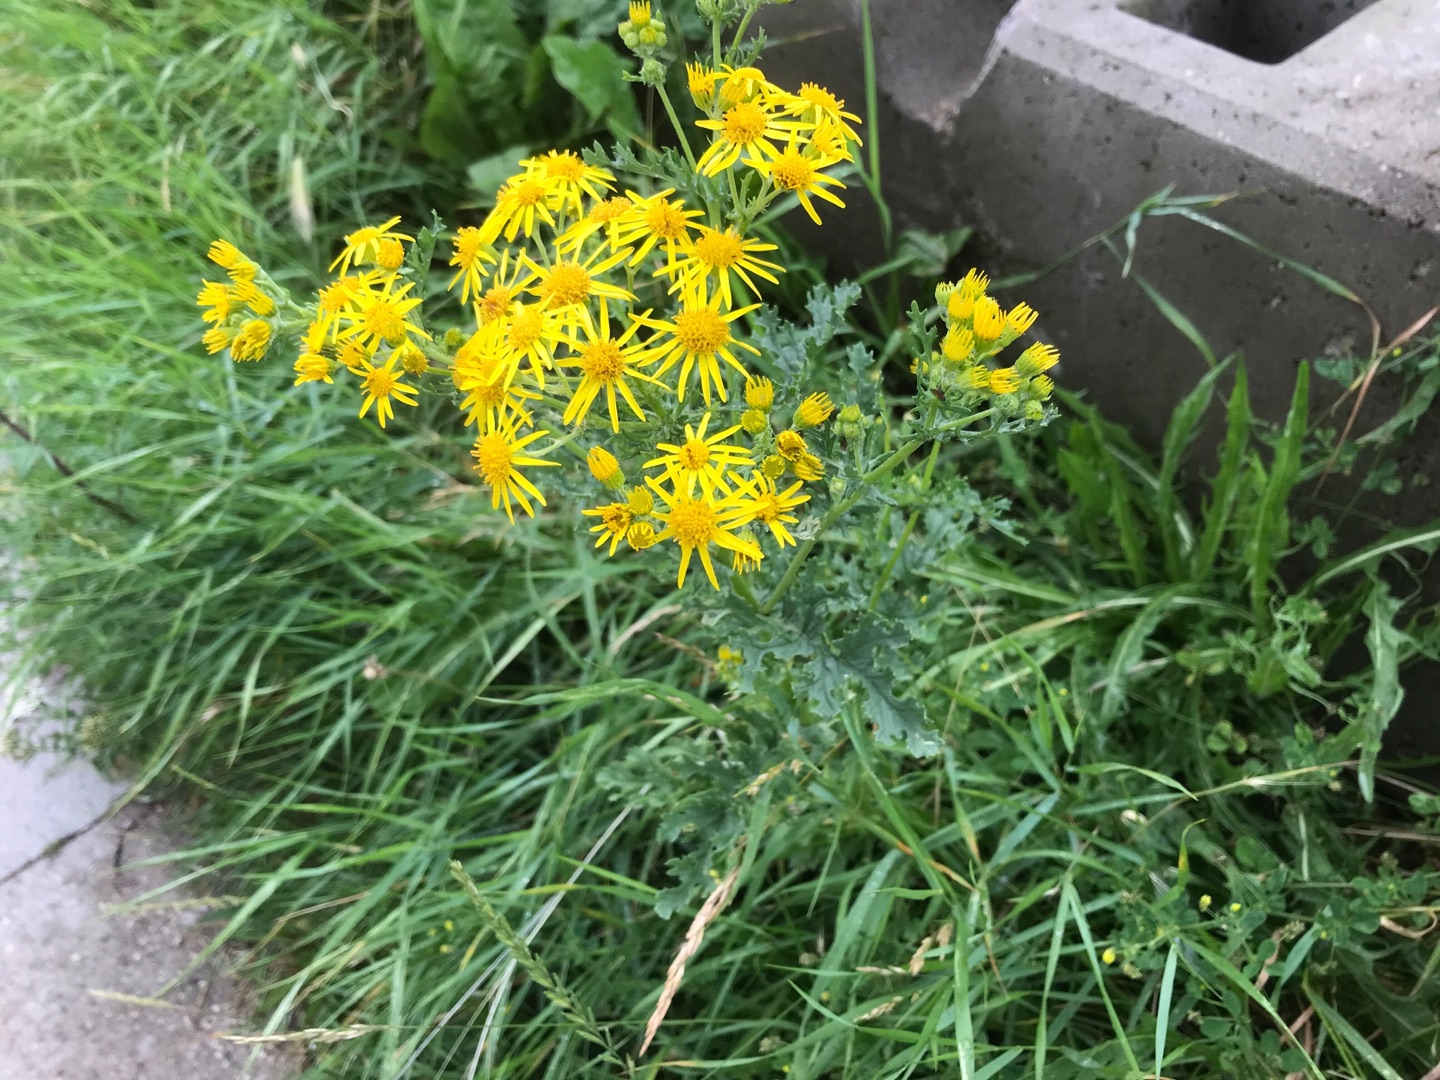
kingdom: Plantae
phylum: Tracheophyta
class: Magnoliopsida
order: Asterales
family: Asteraceae
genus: Jacobaea
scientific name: Jacobaea vulgaris
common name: Eng-brandbæger
